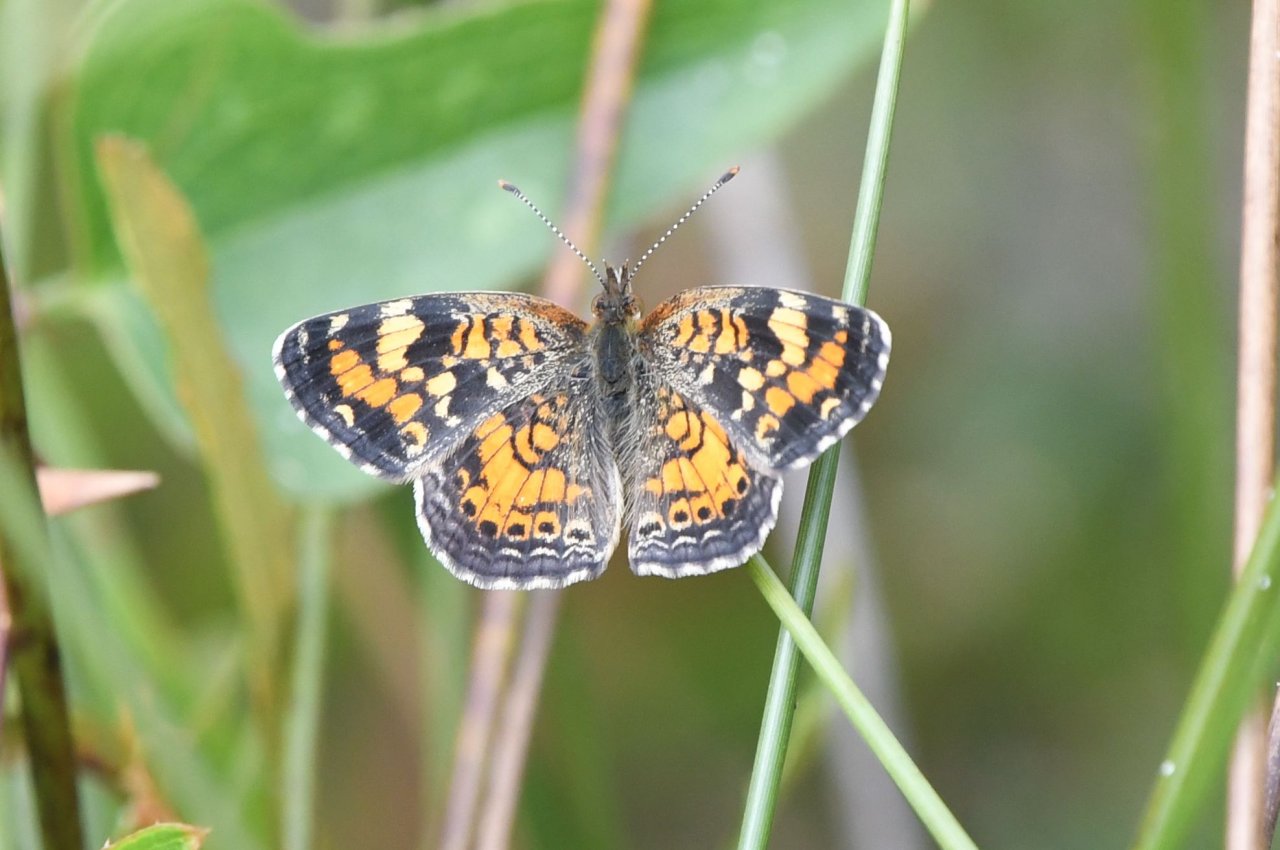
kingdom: Animalia
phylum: Arthropoda
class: Insecta
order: Lepidoptera
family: Nymphalidae
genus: Phyciodes
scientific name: Phyciodes phaon
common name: Phaon Crescent
